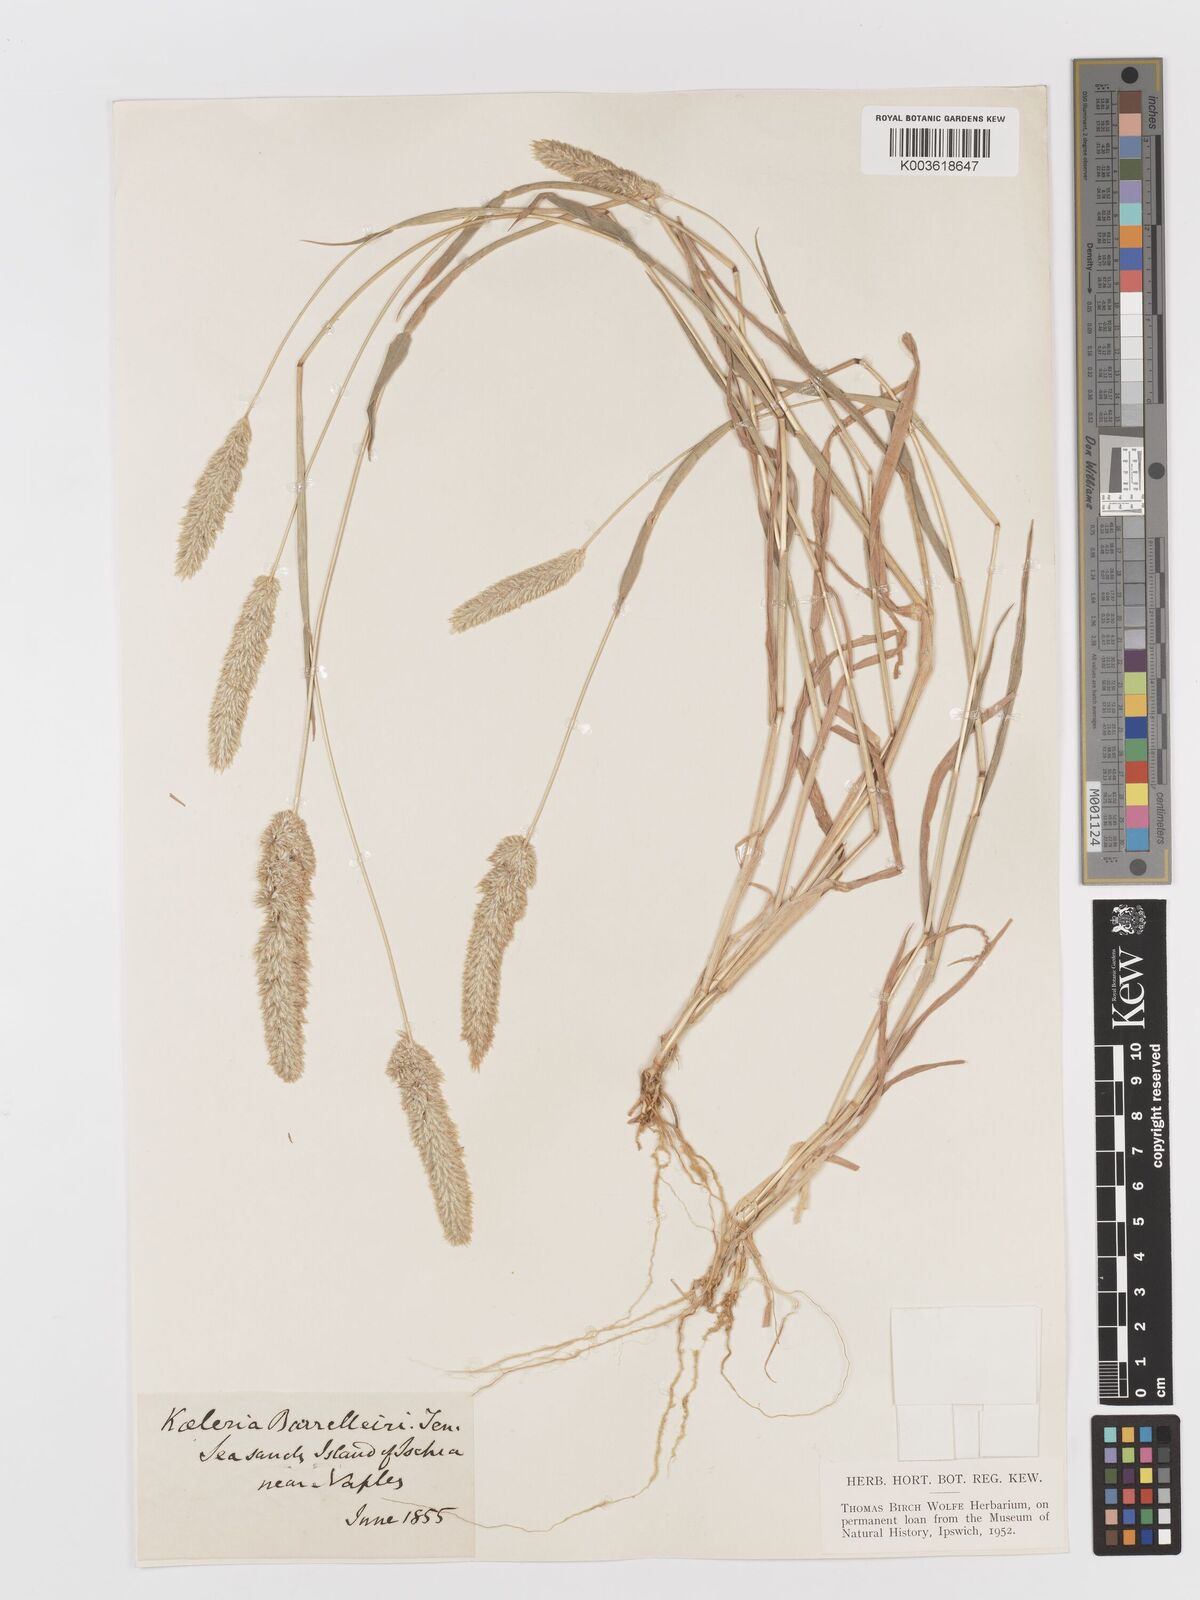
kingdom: Plantae
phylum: Tracheophyta
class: Liliopsida
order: Poales
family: Poaceae
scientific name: Poaceae
